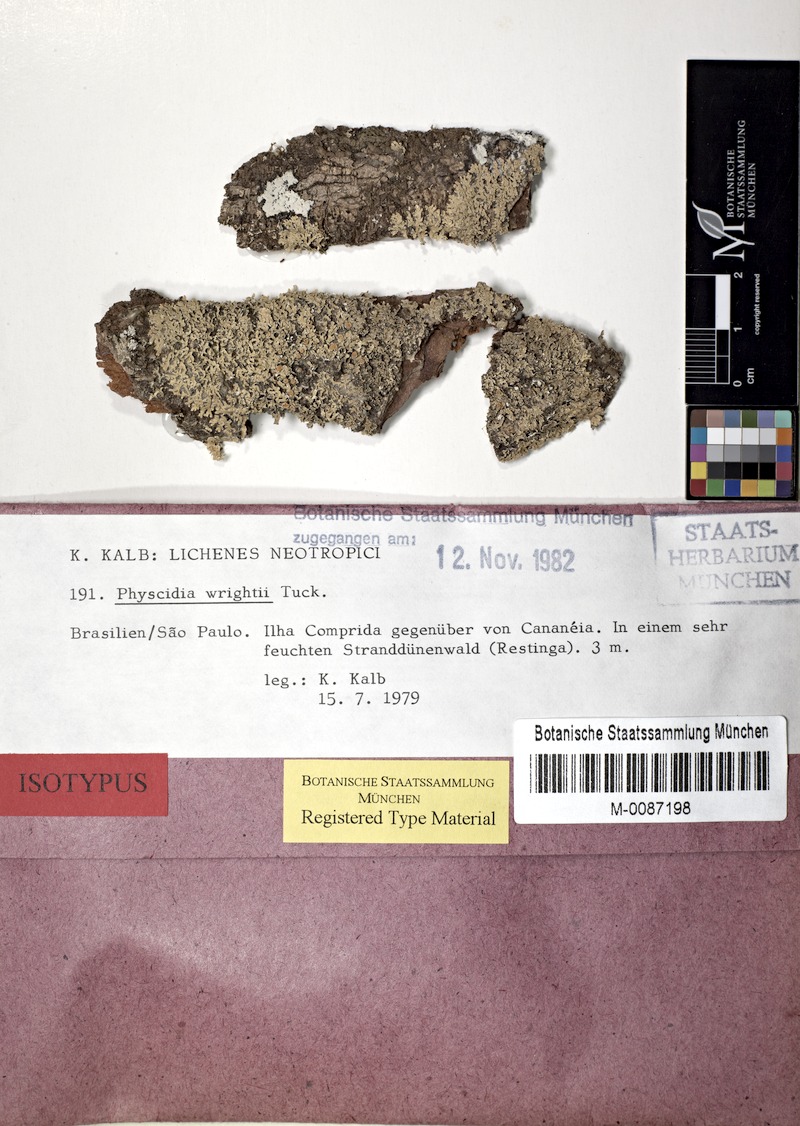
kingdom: Fungi
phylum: Ascomycota
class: Lecanoromycetes
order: Lecanorales
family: Ramalinaceae
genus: Physcidia
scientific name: Physcidia neotropica
